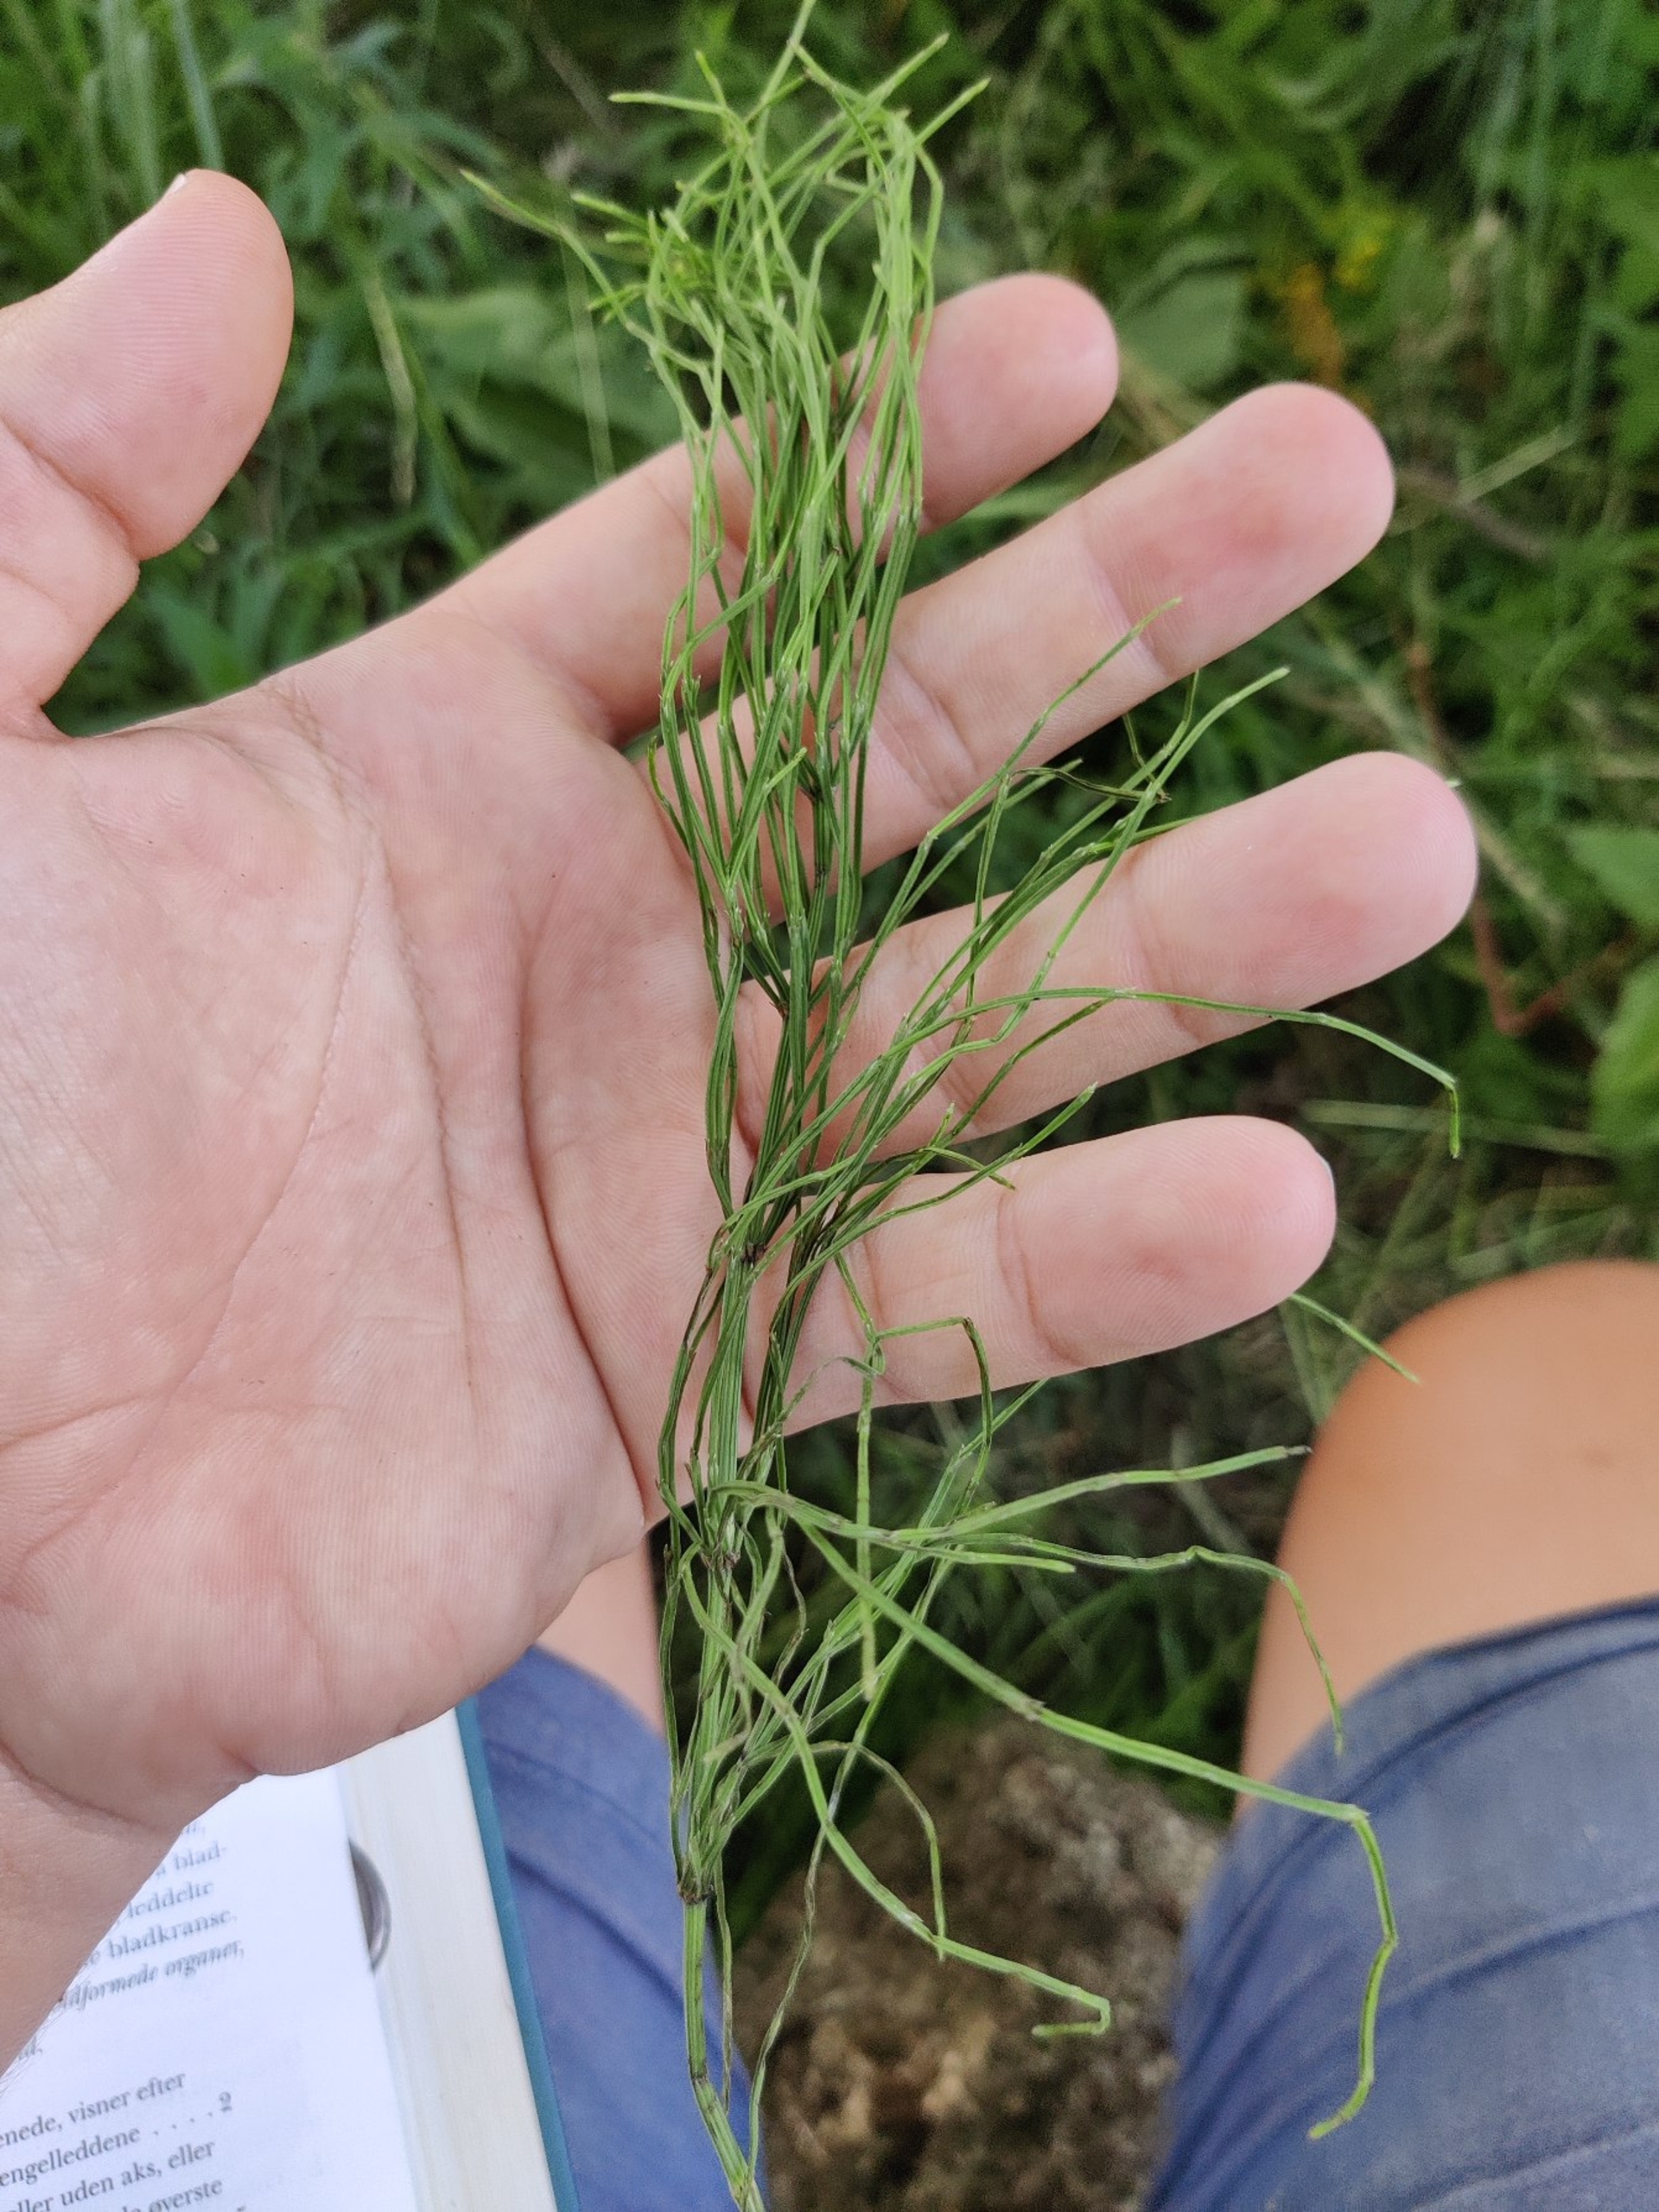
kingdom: Plantae
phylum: Tracheophyta
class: Polypodiopsida
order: Equisetales
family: Equisetaceae
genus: Equisetum
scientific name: Equisetum arvense
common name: Ager-padderok
